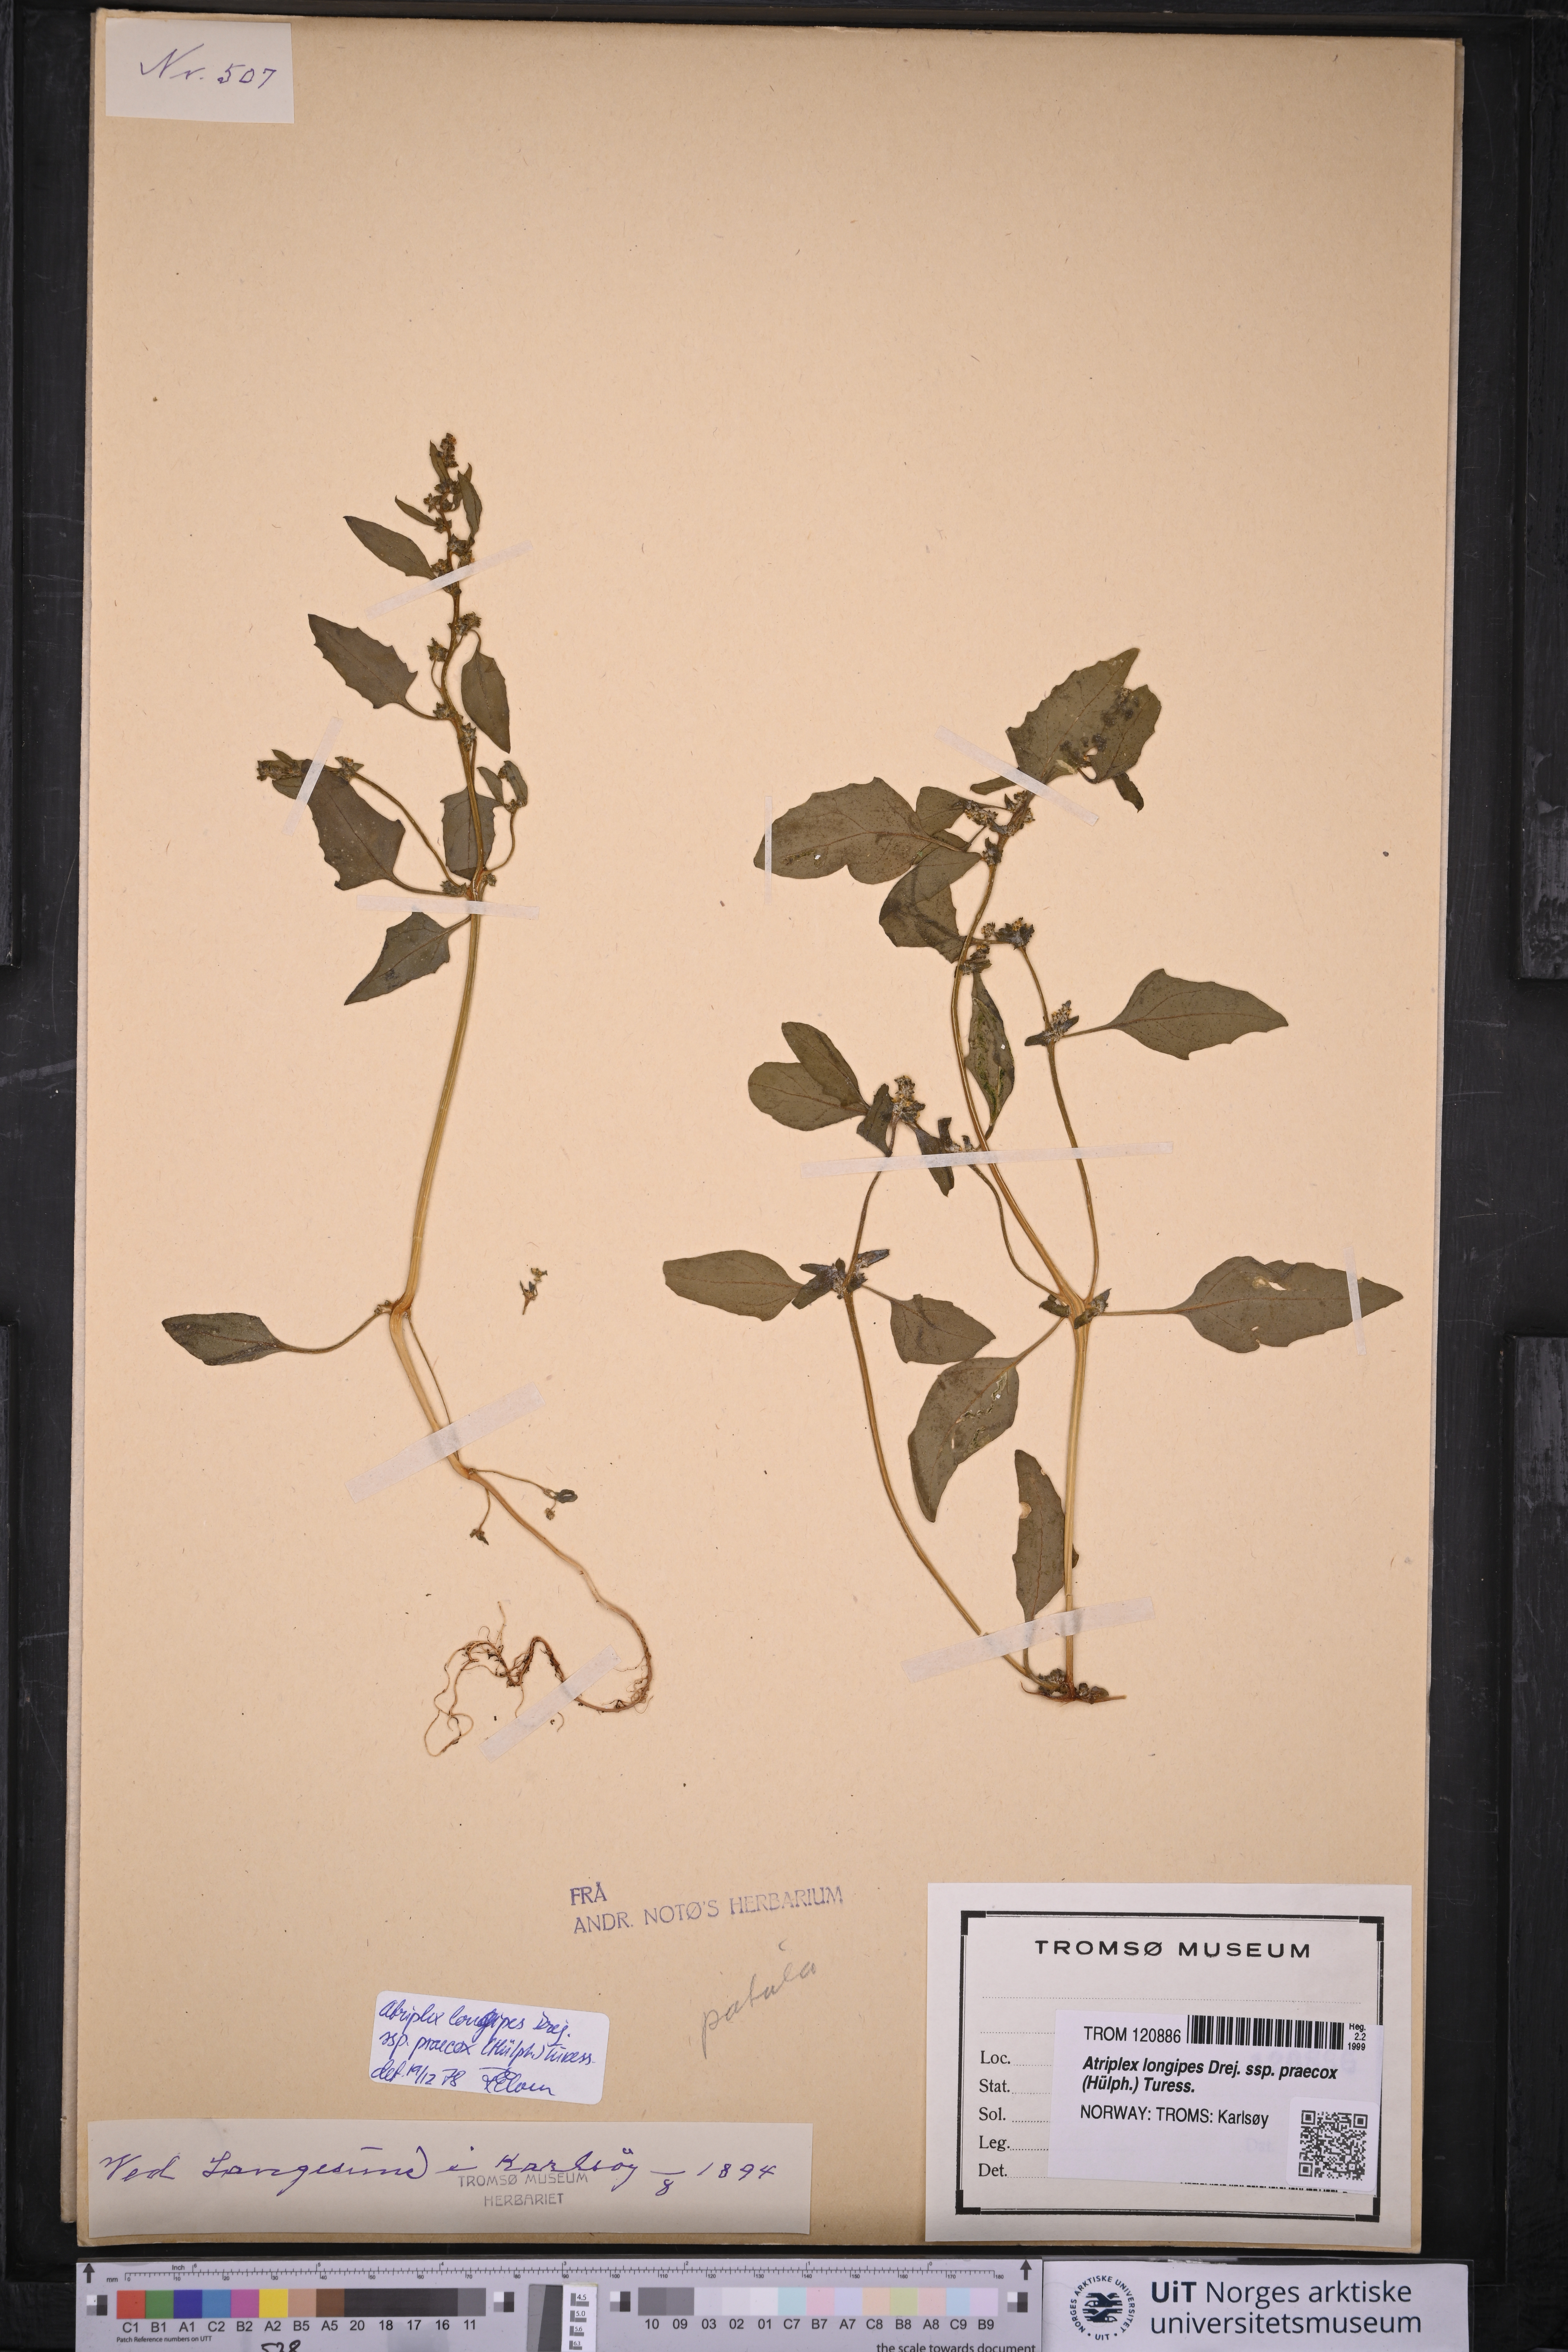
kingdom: Plantae
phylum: Tracheophyta
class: Magnoliopsida
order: Caryophyllales
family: Amaranthaceae
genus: Atriplex
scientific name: Atriplex praecox
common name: Early orache
